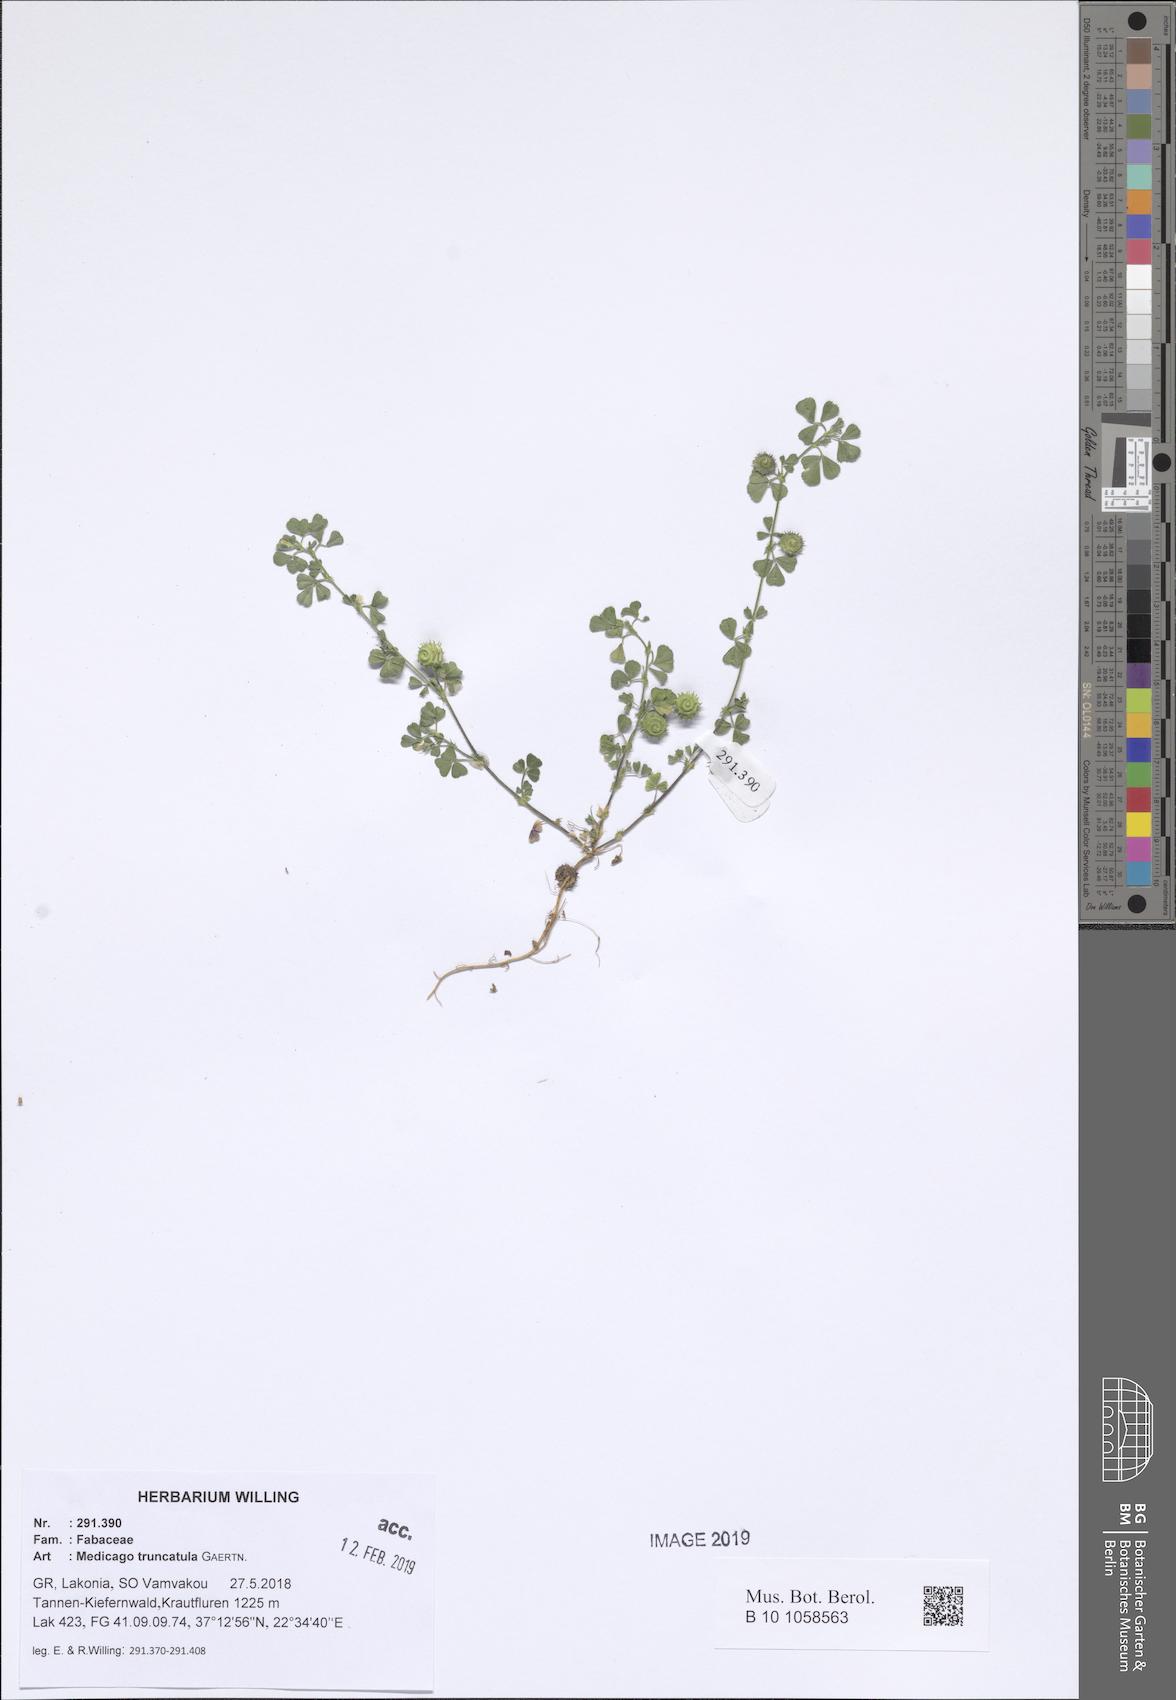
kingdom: Plantae
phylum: Tracheophyta
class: Magnoliopsida
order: Fabales
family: Fabaceae
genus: Medicago
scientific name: Medicago truncatula
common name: Strong-spined medick
